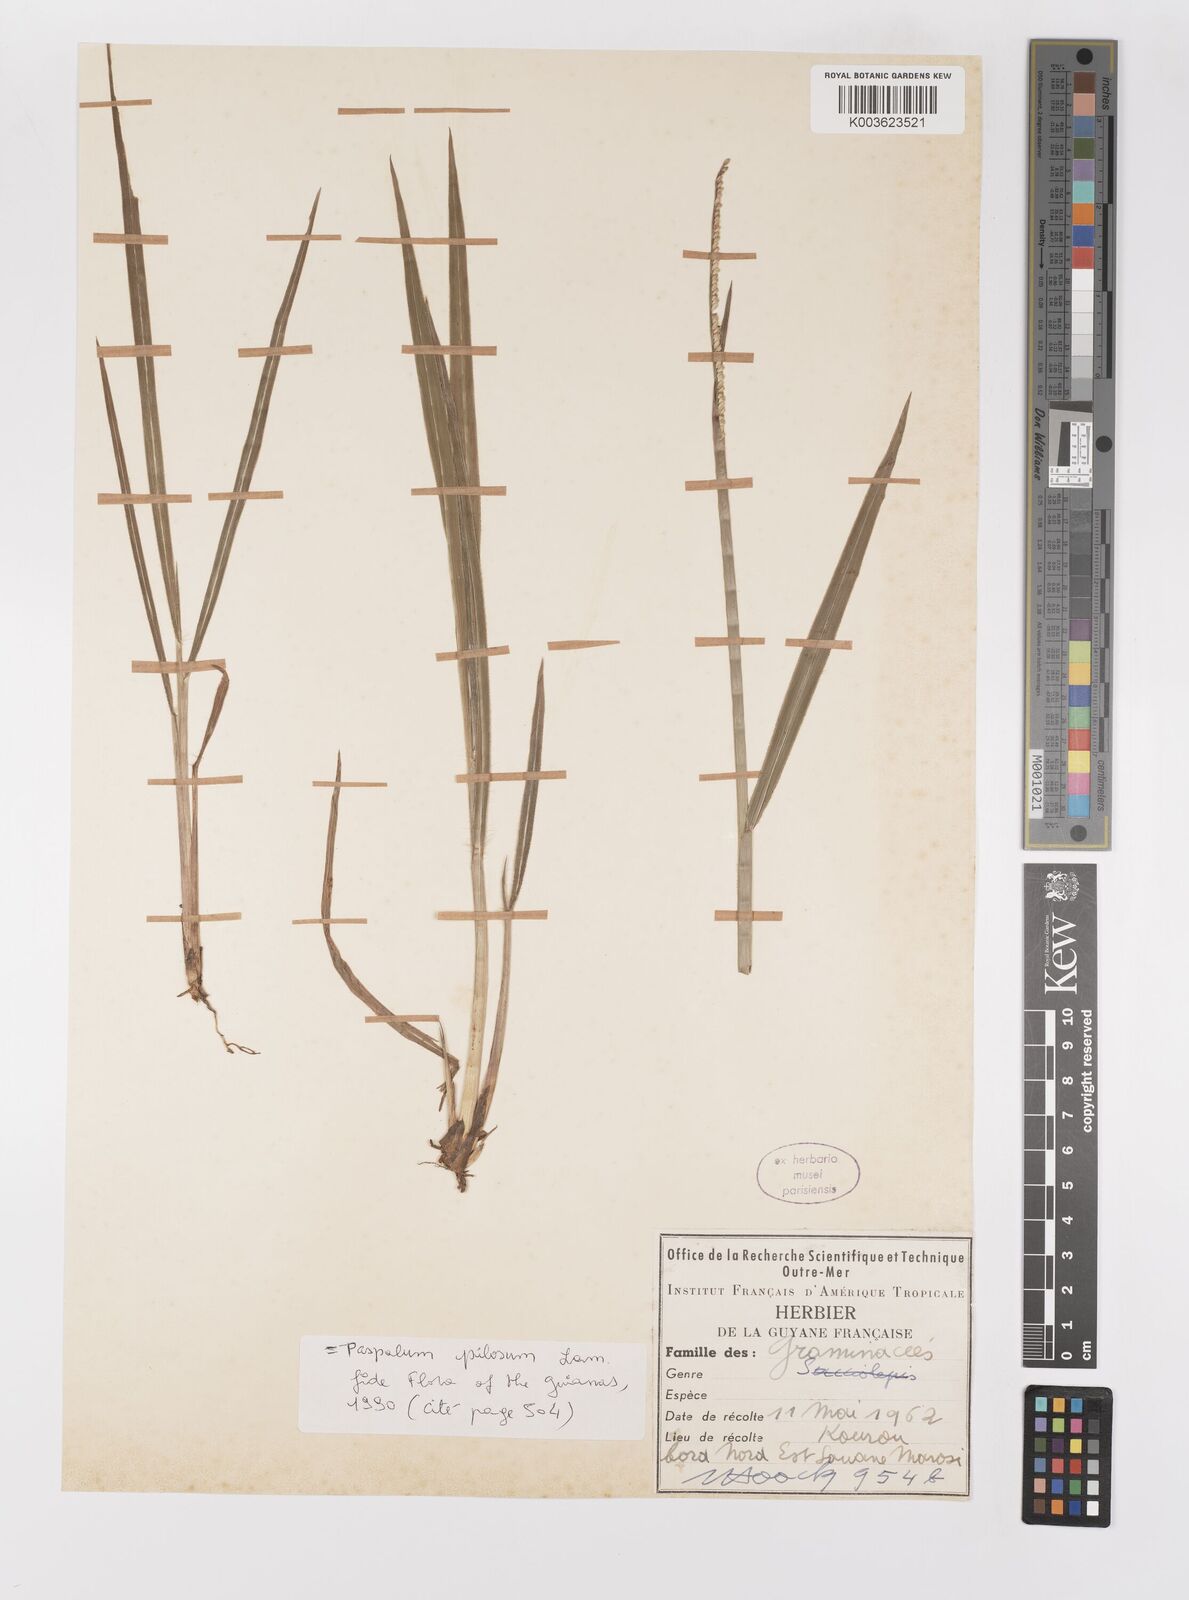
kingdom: Plantae
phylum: Tracheophyta
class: Liliopsida
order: Poales
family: Poaceae
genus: Paspalum
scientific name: Paspalum pilosum
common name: Crowngrass
